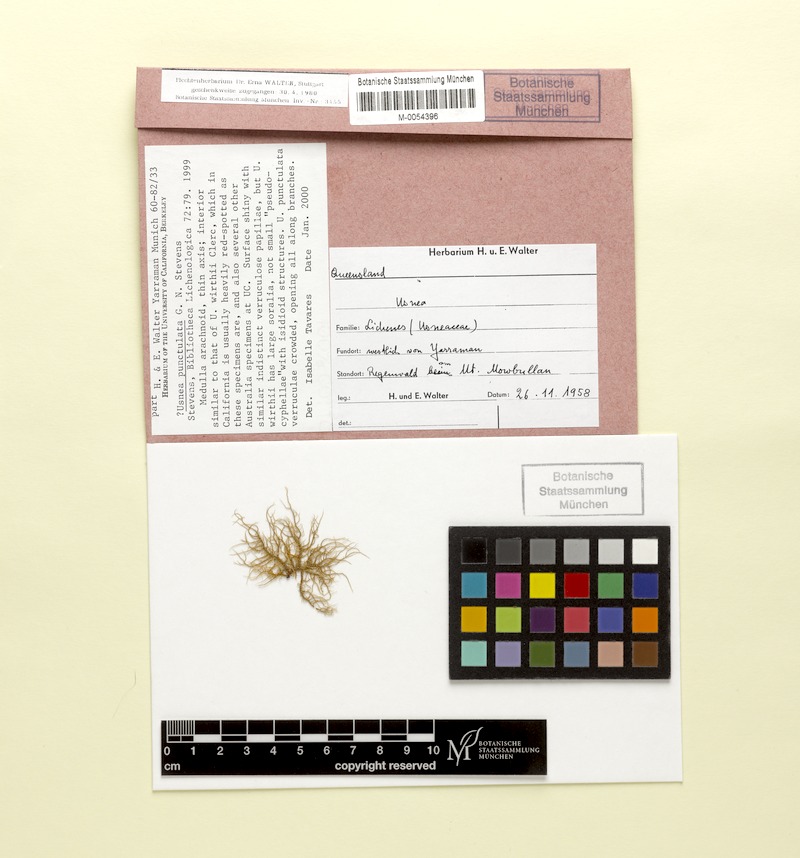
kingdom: Fungi
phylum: Ascomycota
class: Lecanoromycetes
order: Lecanorales
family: Parmeliaceae
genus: Usnea
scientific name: Usnea
